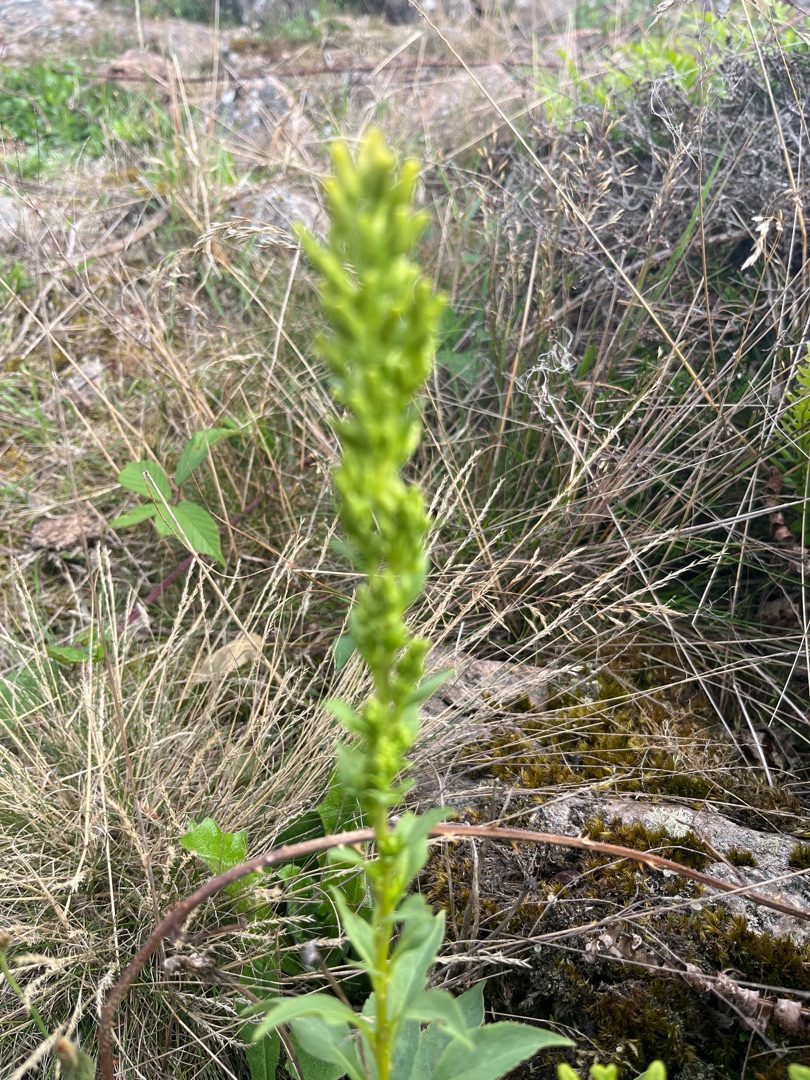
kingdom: Plantae
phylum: Tracheophyta
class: Magnoliopsida
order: Asterales
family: Asteraceae
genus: Solidago
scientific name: Solidago virgaurea
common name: Almindelig gyldenris
